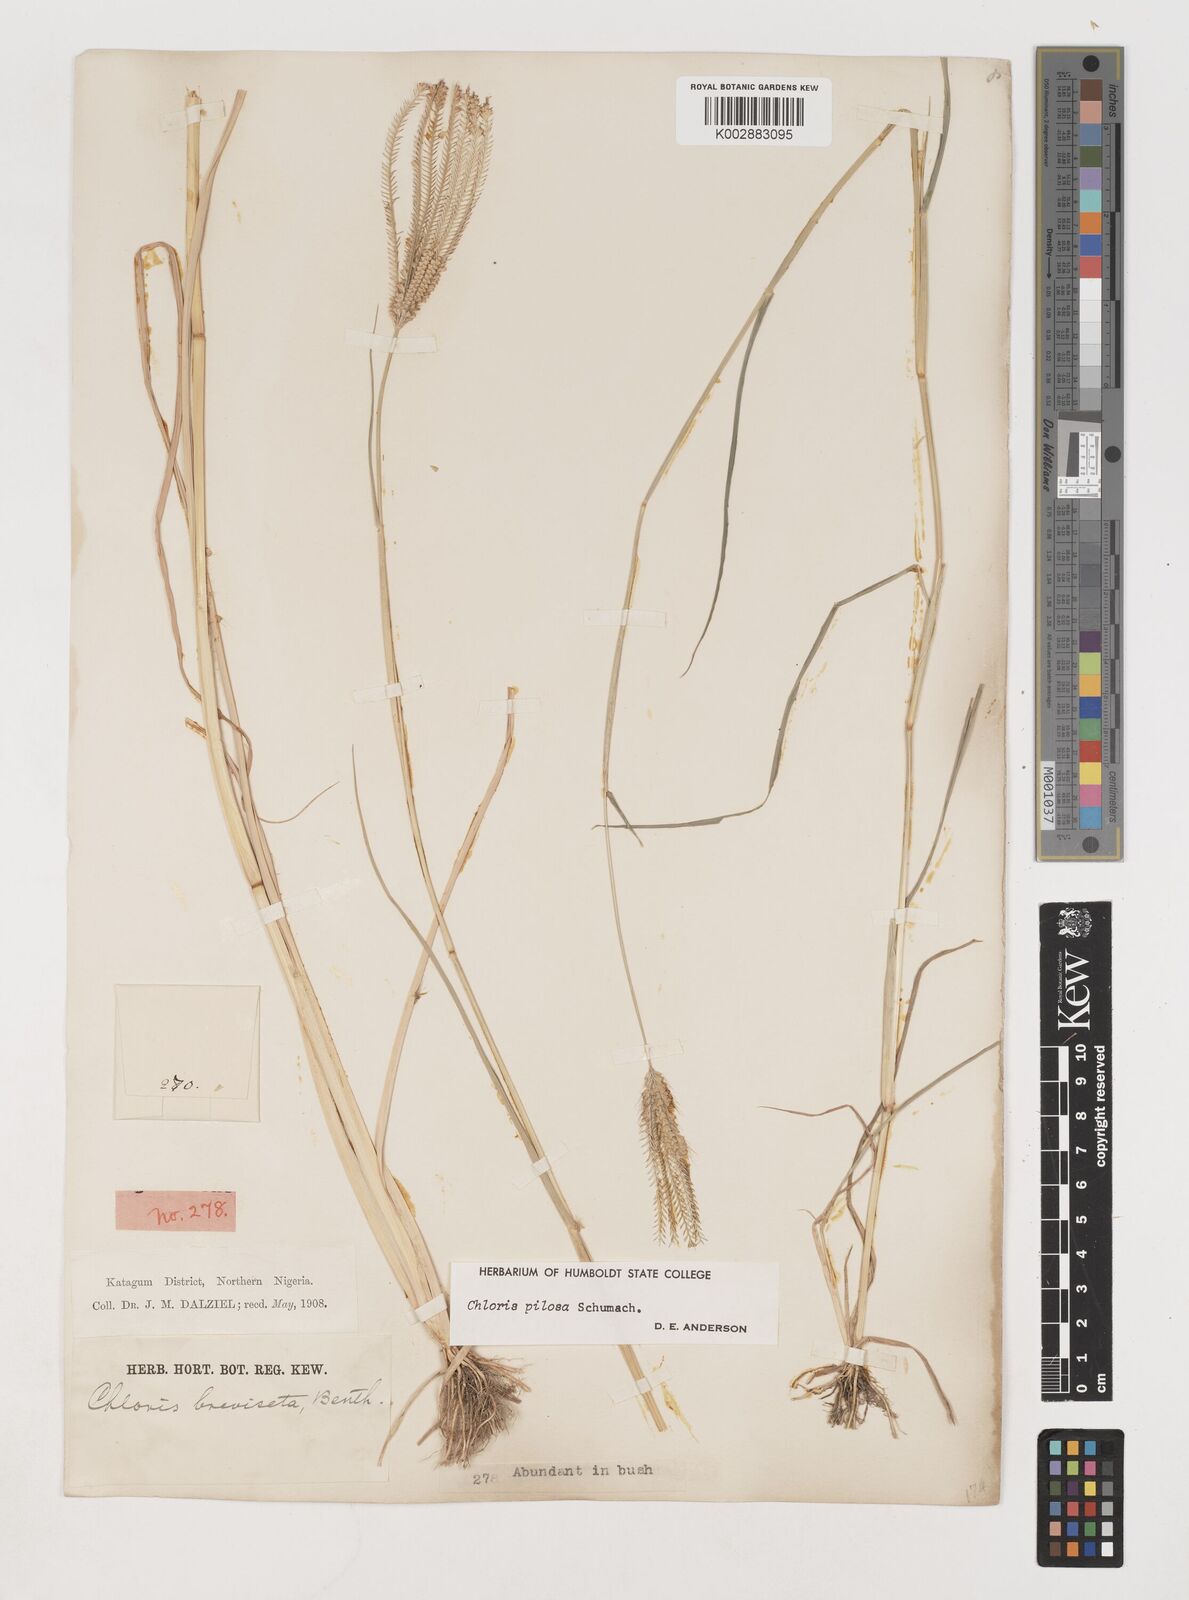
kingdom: Plantae
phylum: Tracheophyta
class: Liliopsida
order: Poales
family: Poaceae
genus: Chloris
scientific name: Chloris pilosa
